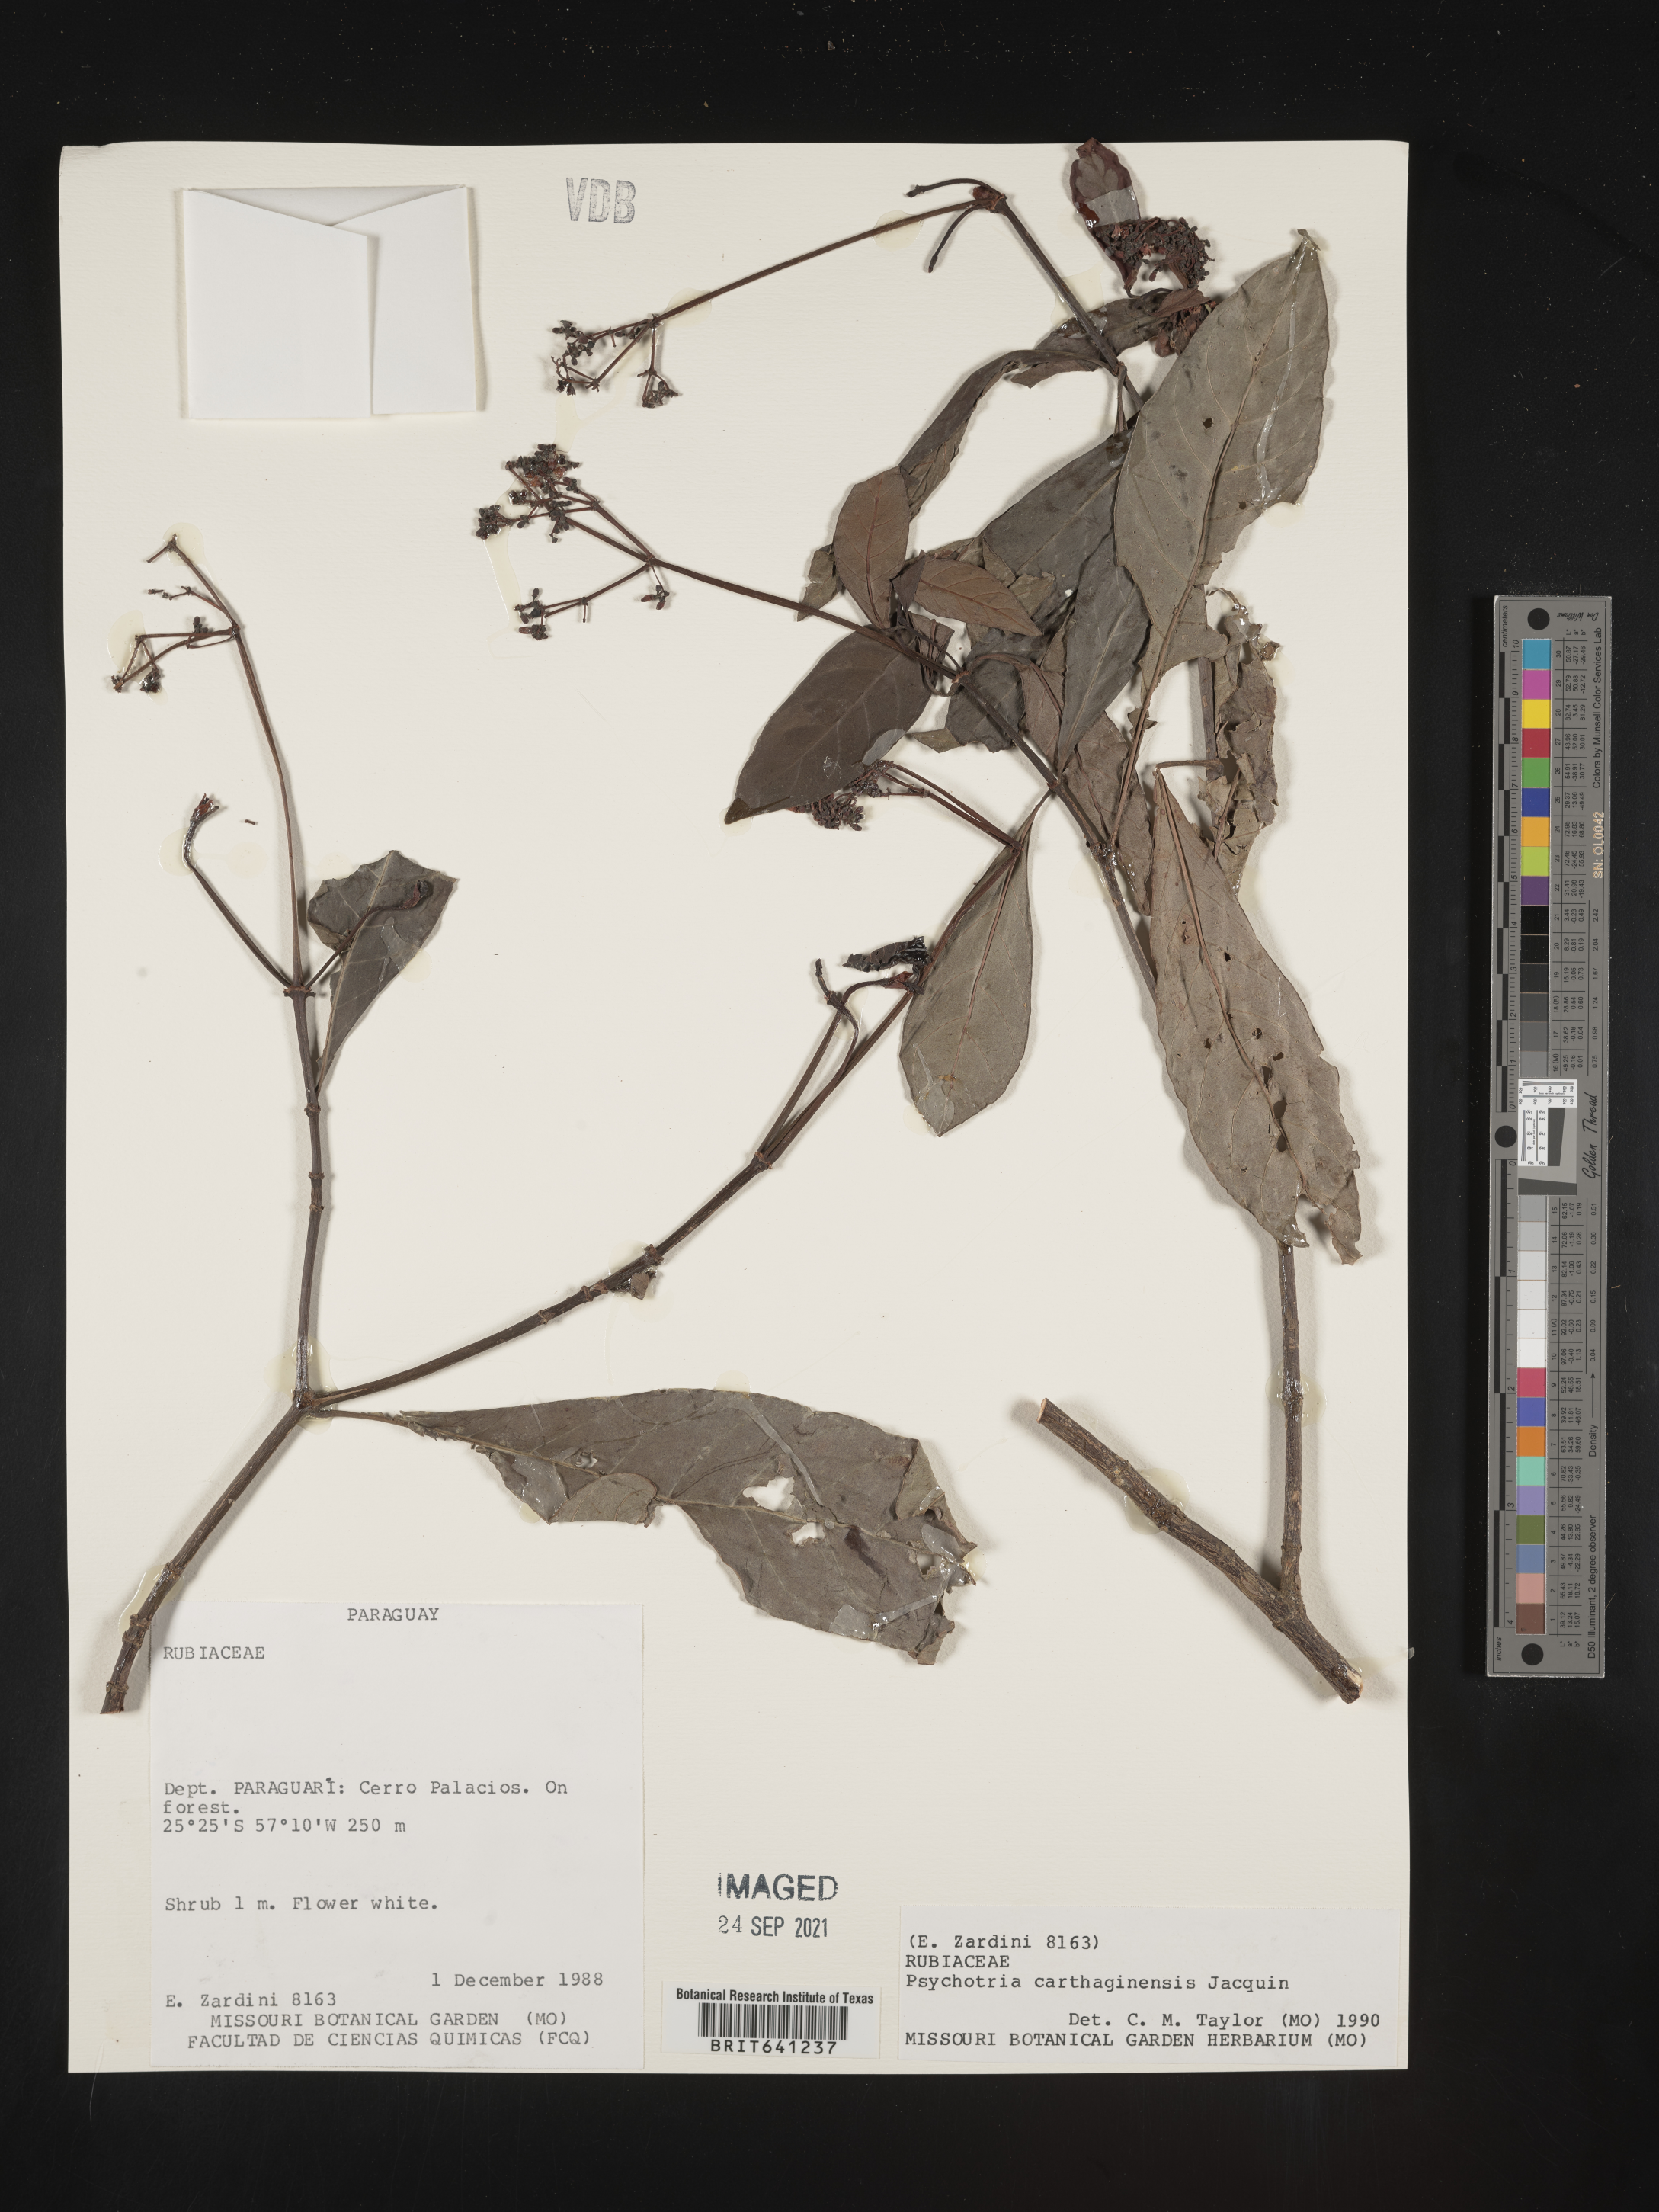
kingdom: Plantae
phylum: Tracheophyta
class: Magnoliopsida
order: Gentianales
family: Rubiaceae
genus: Psychotria
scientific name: Psychotria
